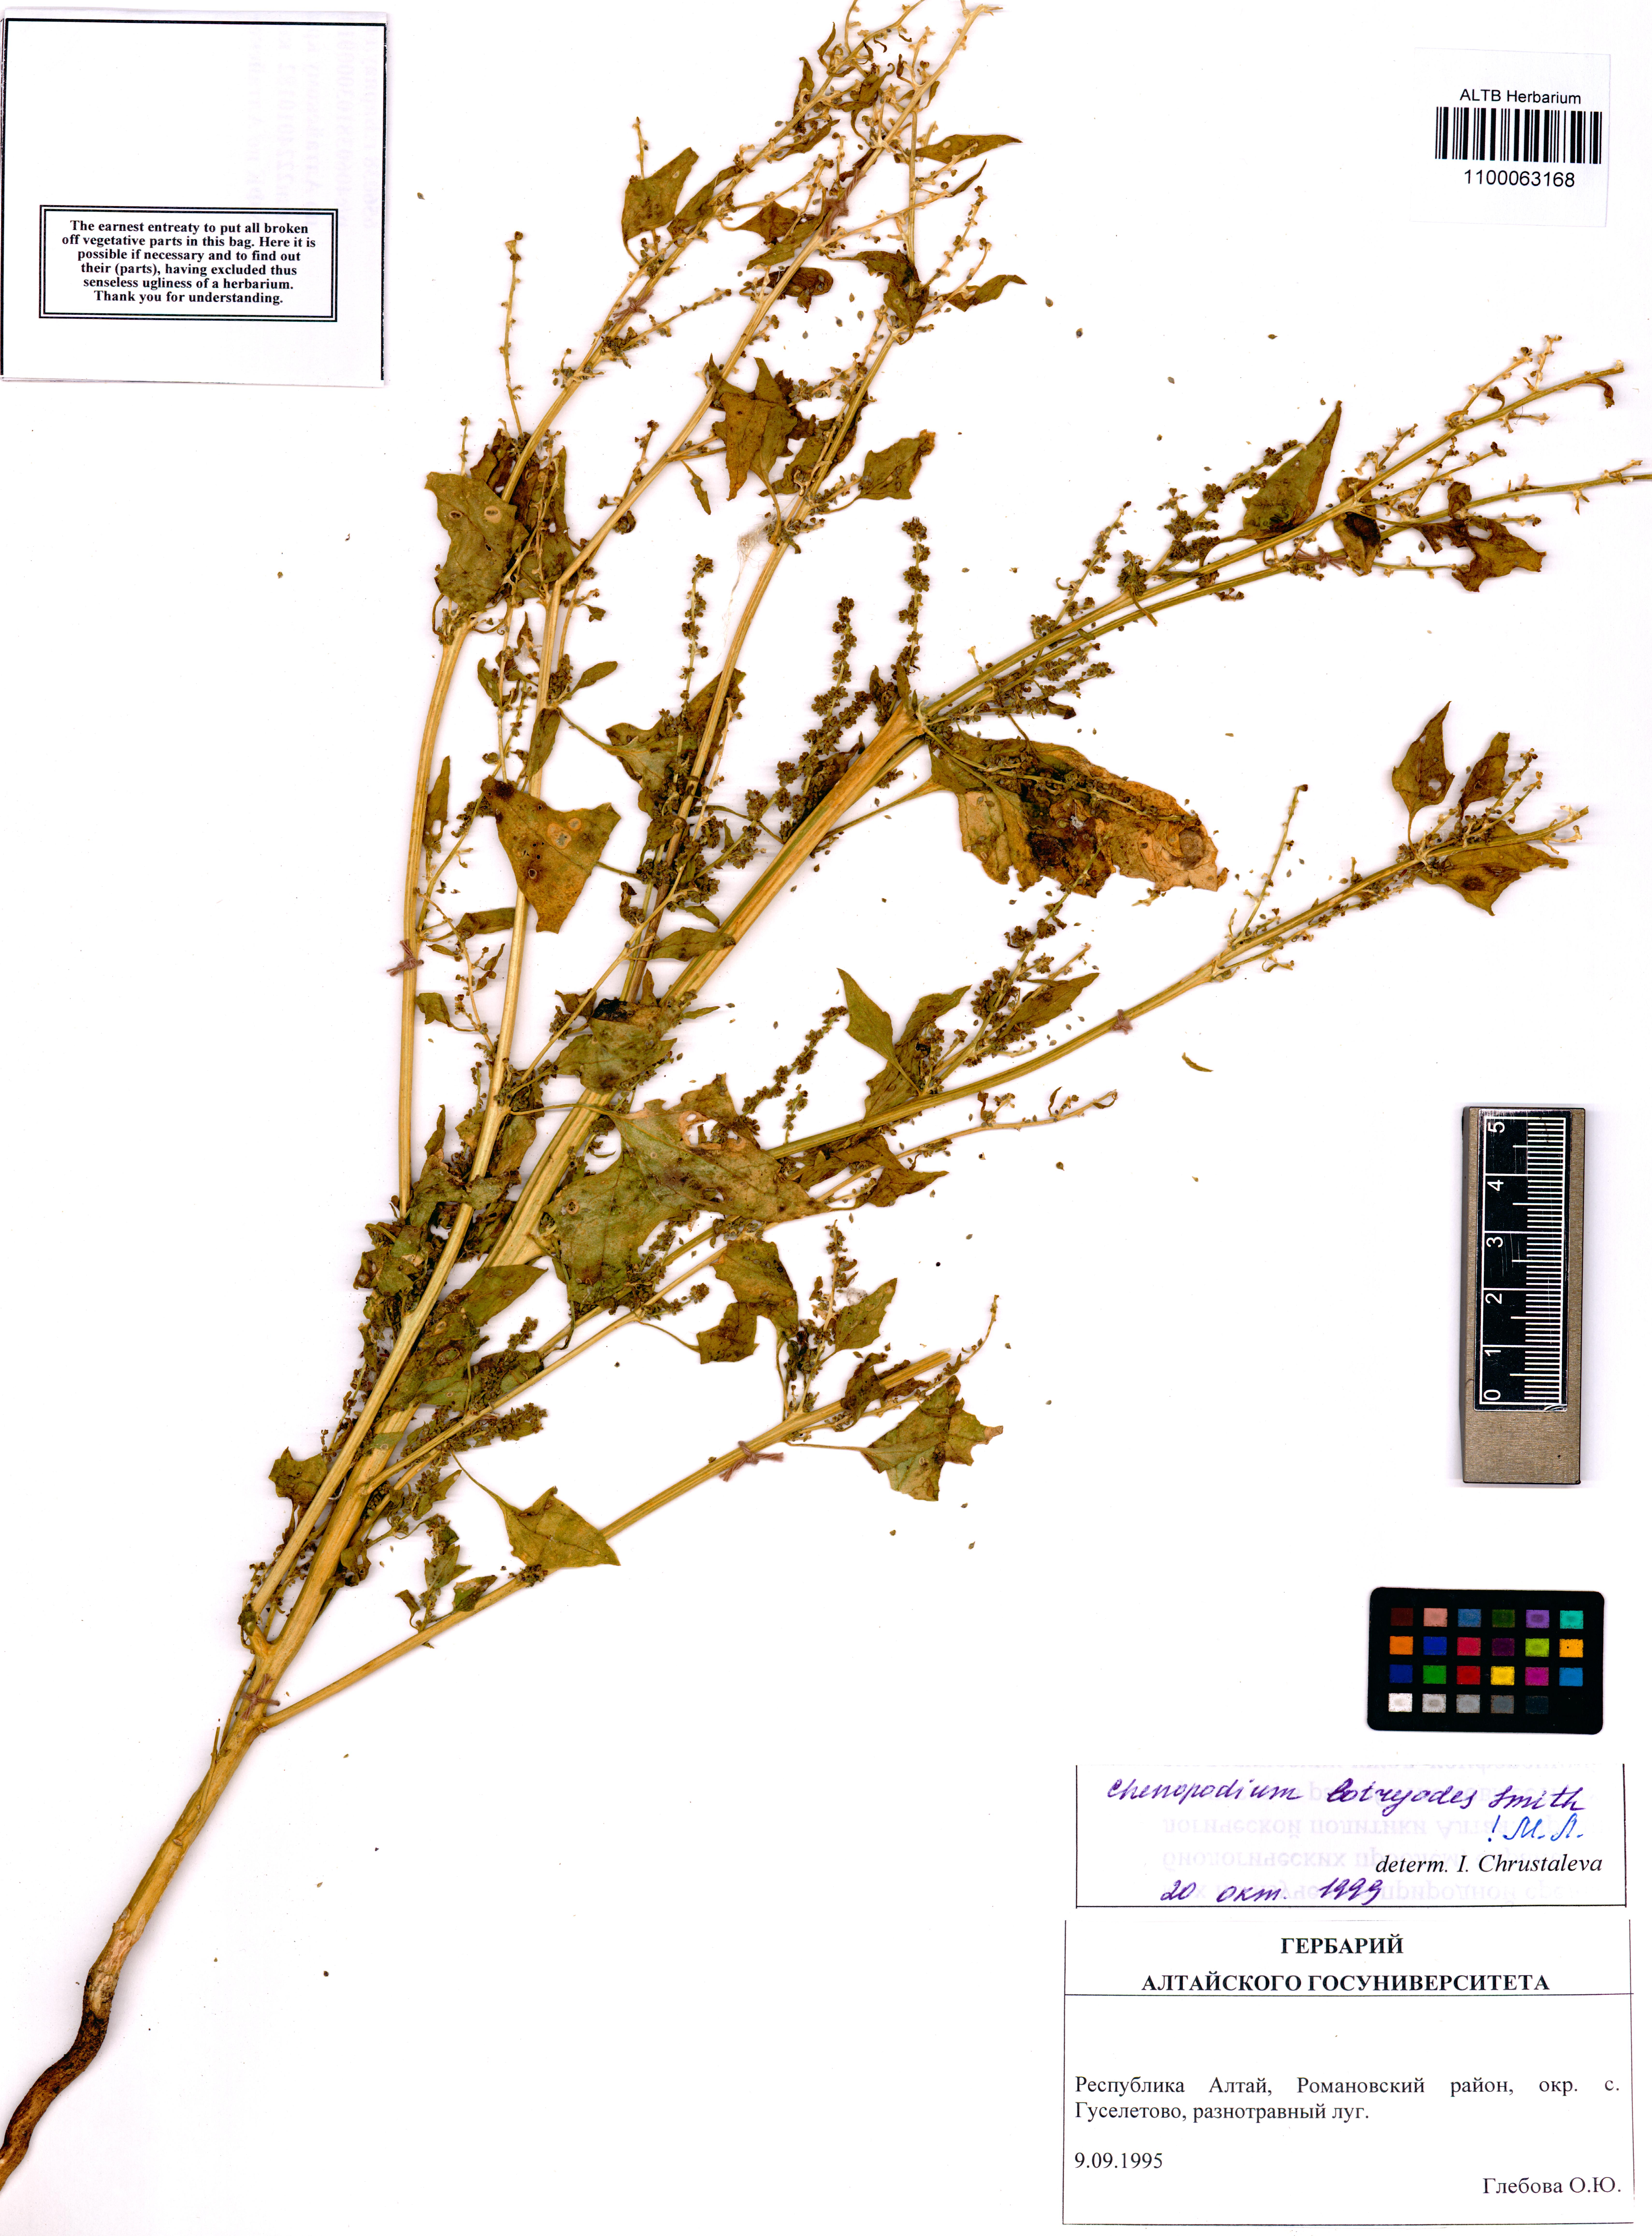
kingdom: Plantae
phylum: Tracheophyta
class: Magnoliopsida
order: Caryophyllales
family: Amaranthaceae
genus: Oxybasis
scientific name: Oxybasis chenopodioides
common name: Saltmarsh goosefoot
